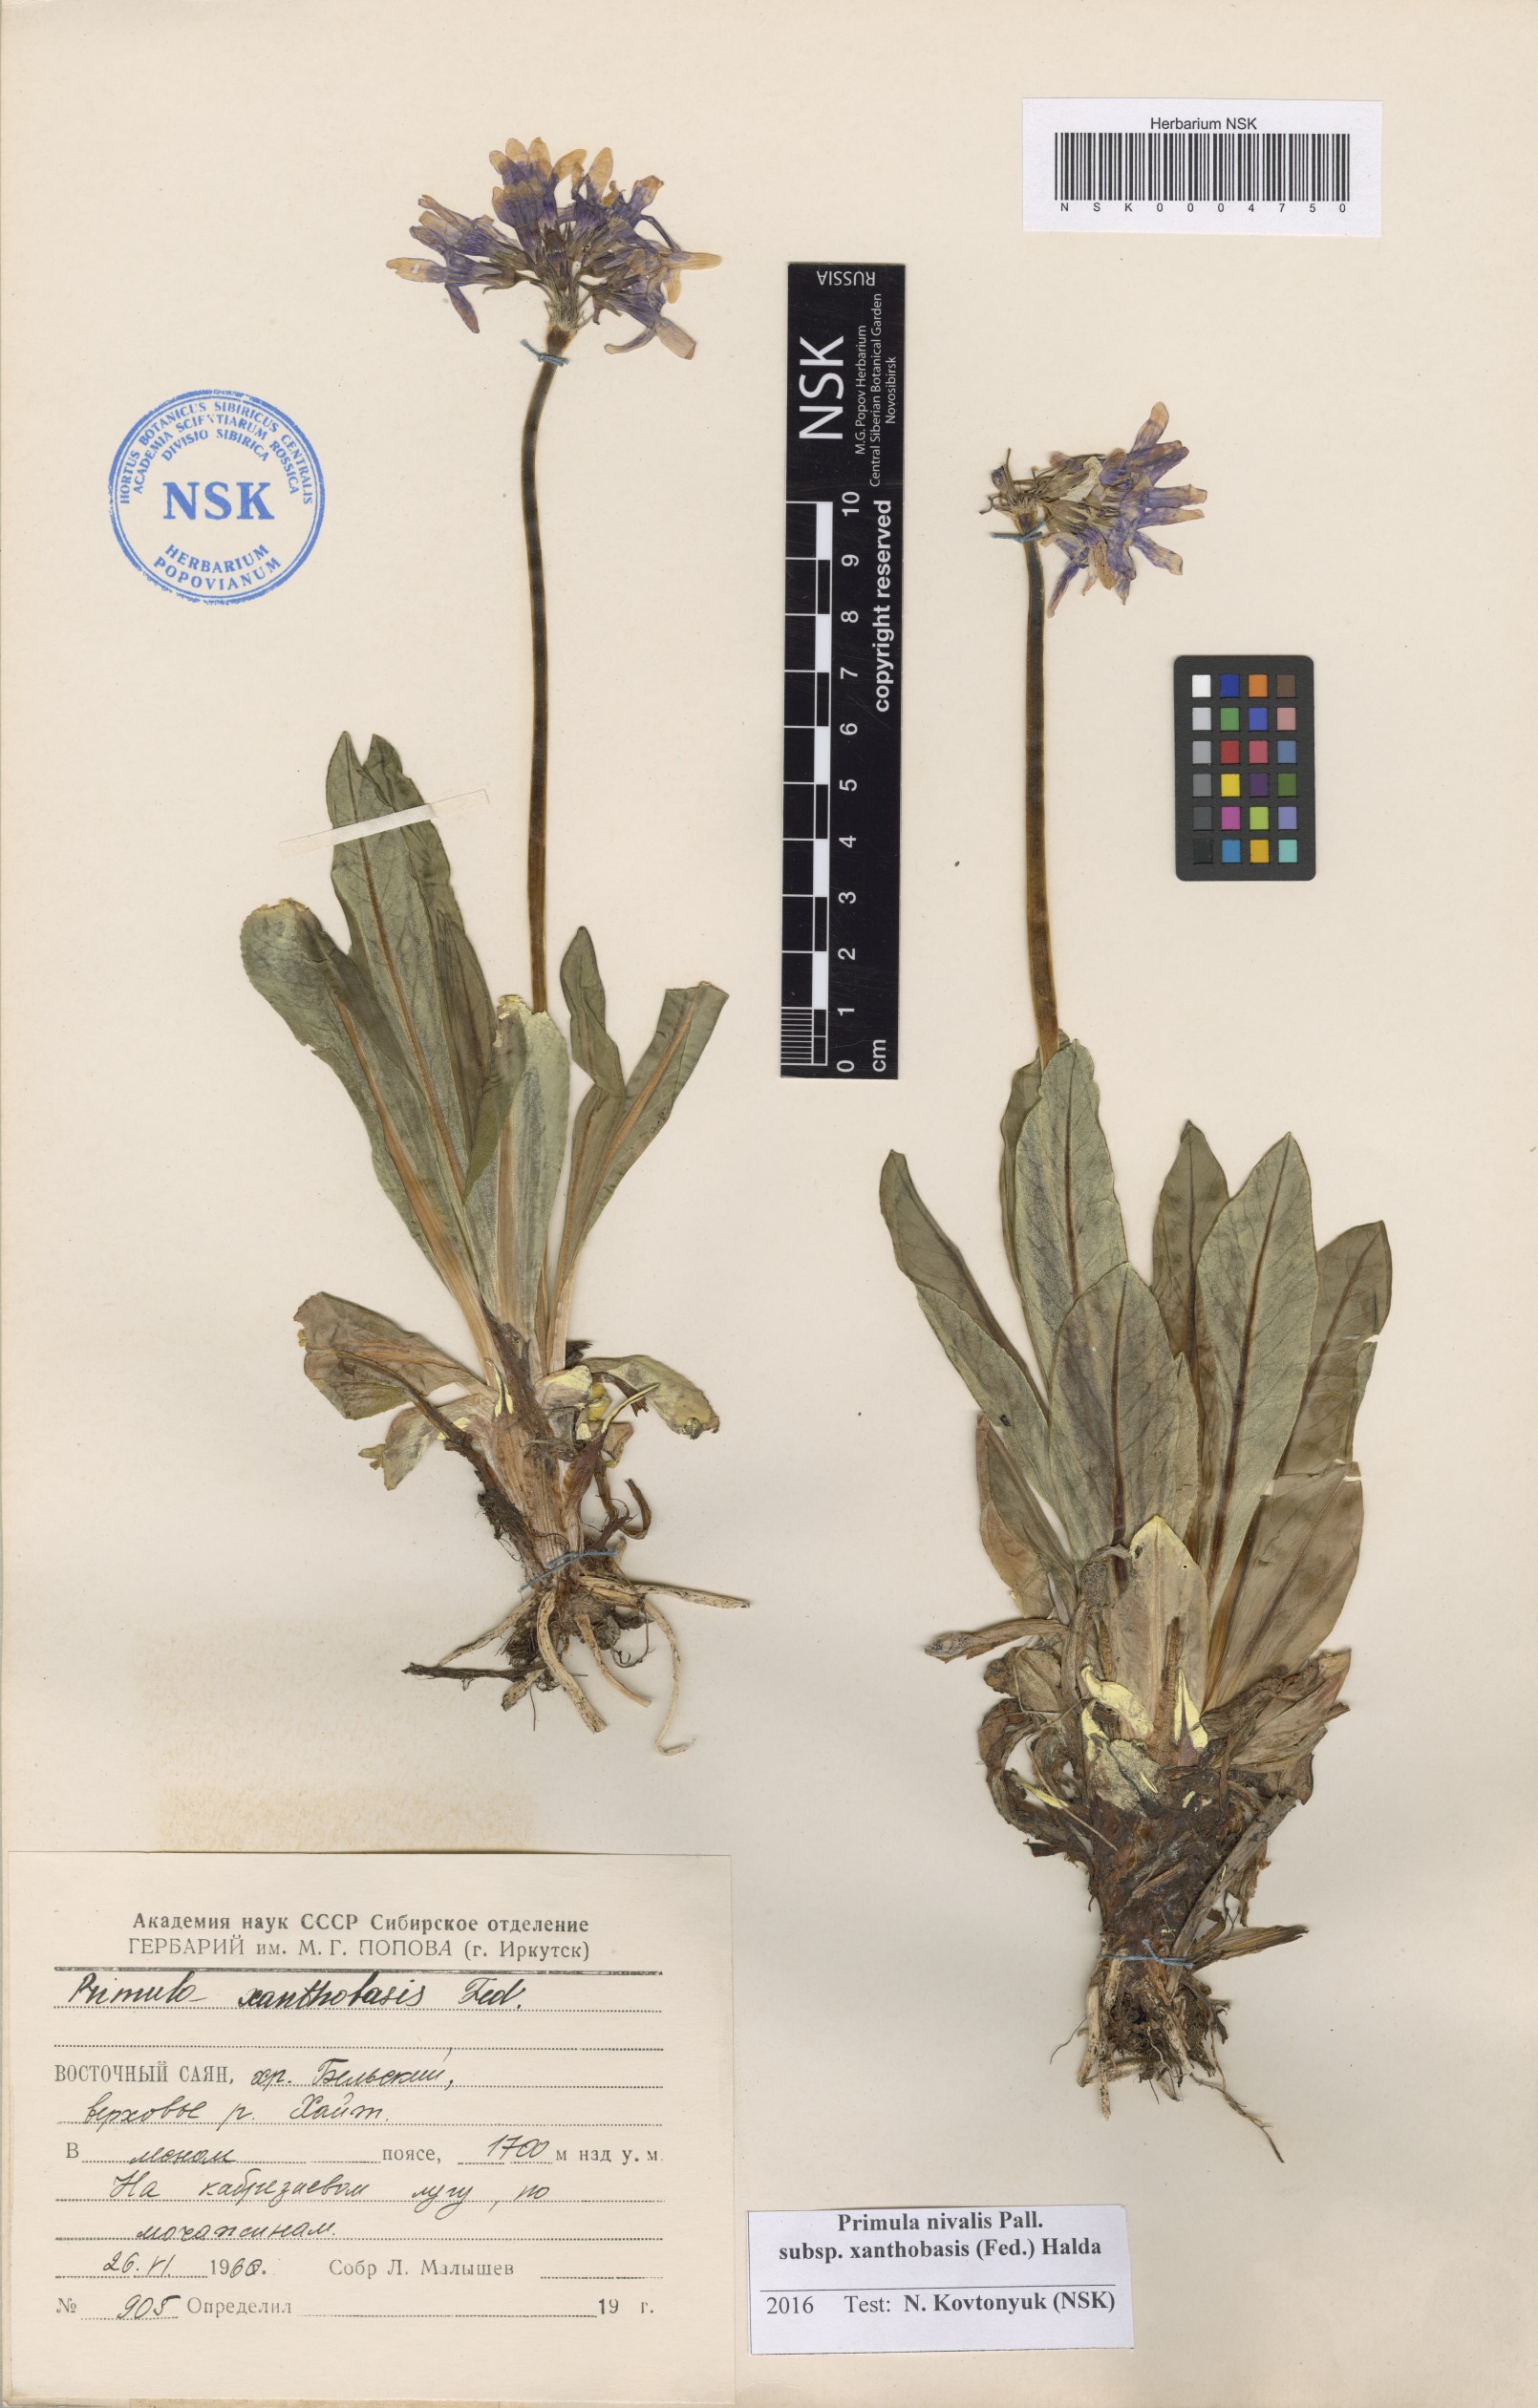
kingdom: Plantae
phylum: Tracheophyta
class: Magnoliopsida
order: Ericales
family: Primulaceae
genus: Primula
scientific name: Primula nivalis
